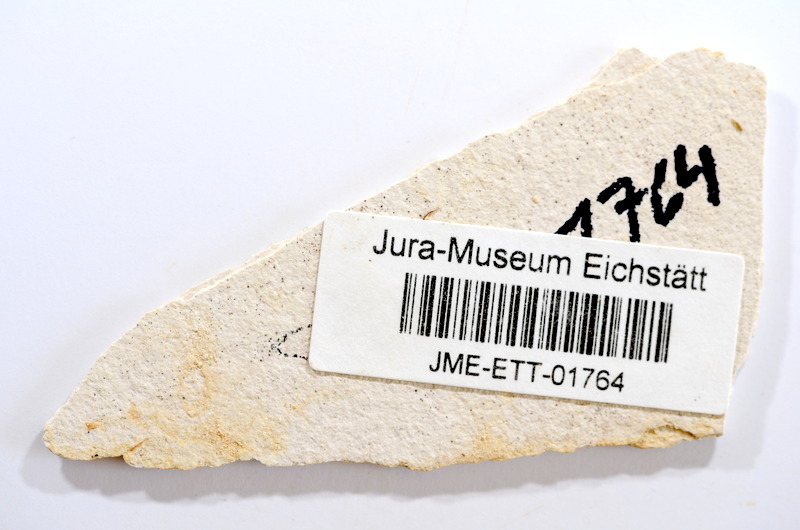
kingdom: Animalia
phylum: Chordata
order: Salmoniformes
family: Orthogonikleithridae
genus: Orthogonikleithrus
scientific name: Orthogonikleithrus hoelli
